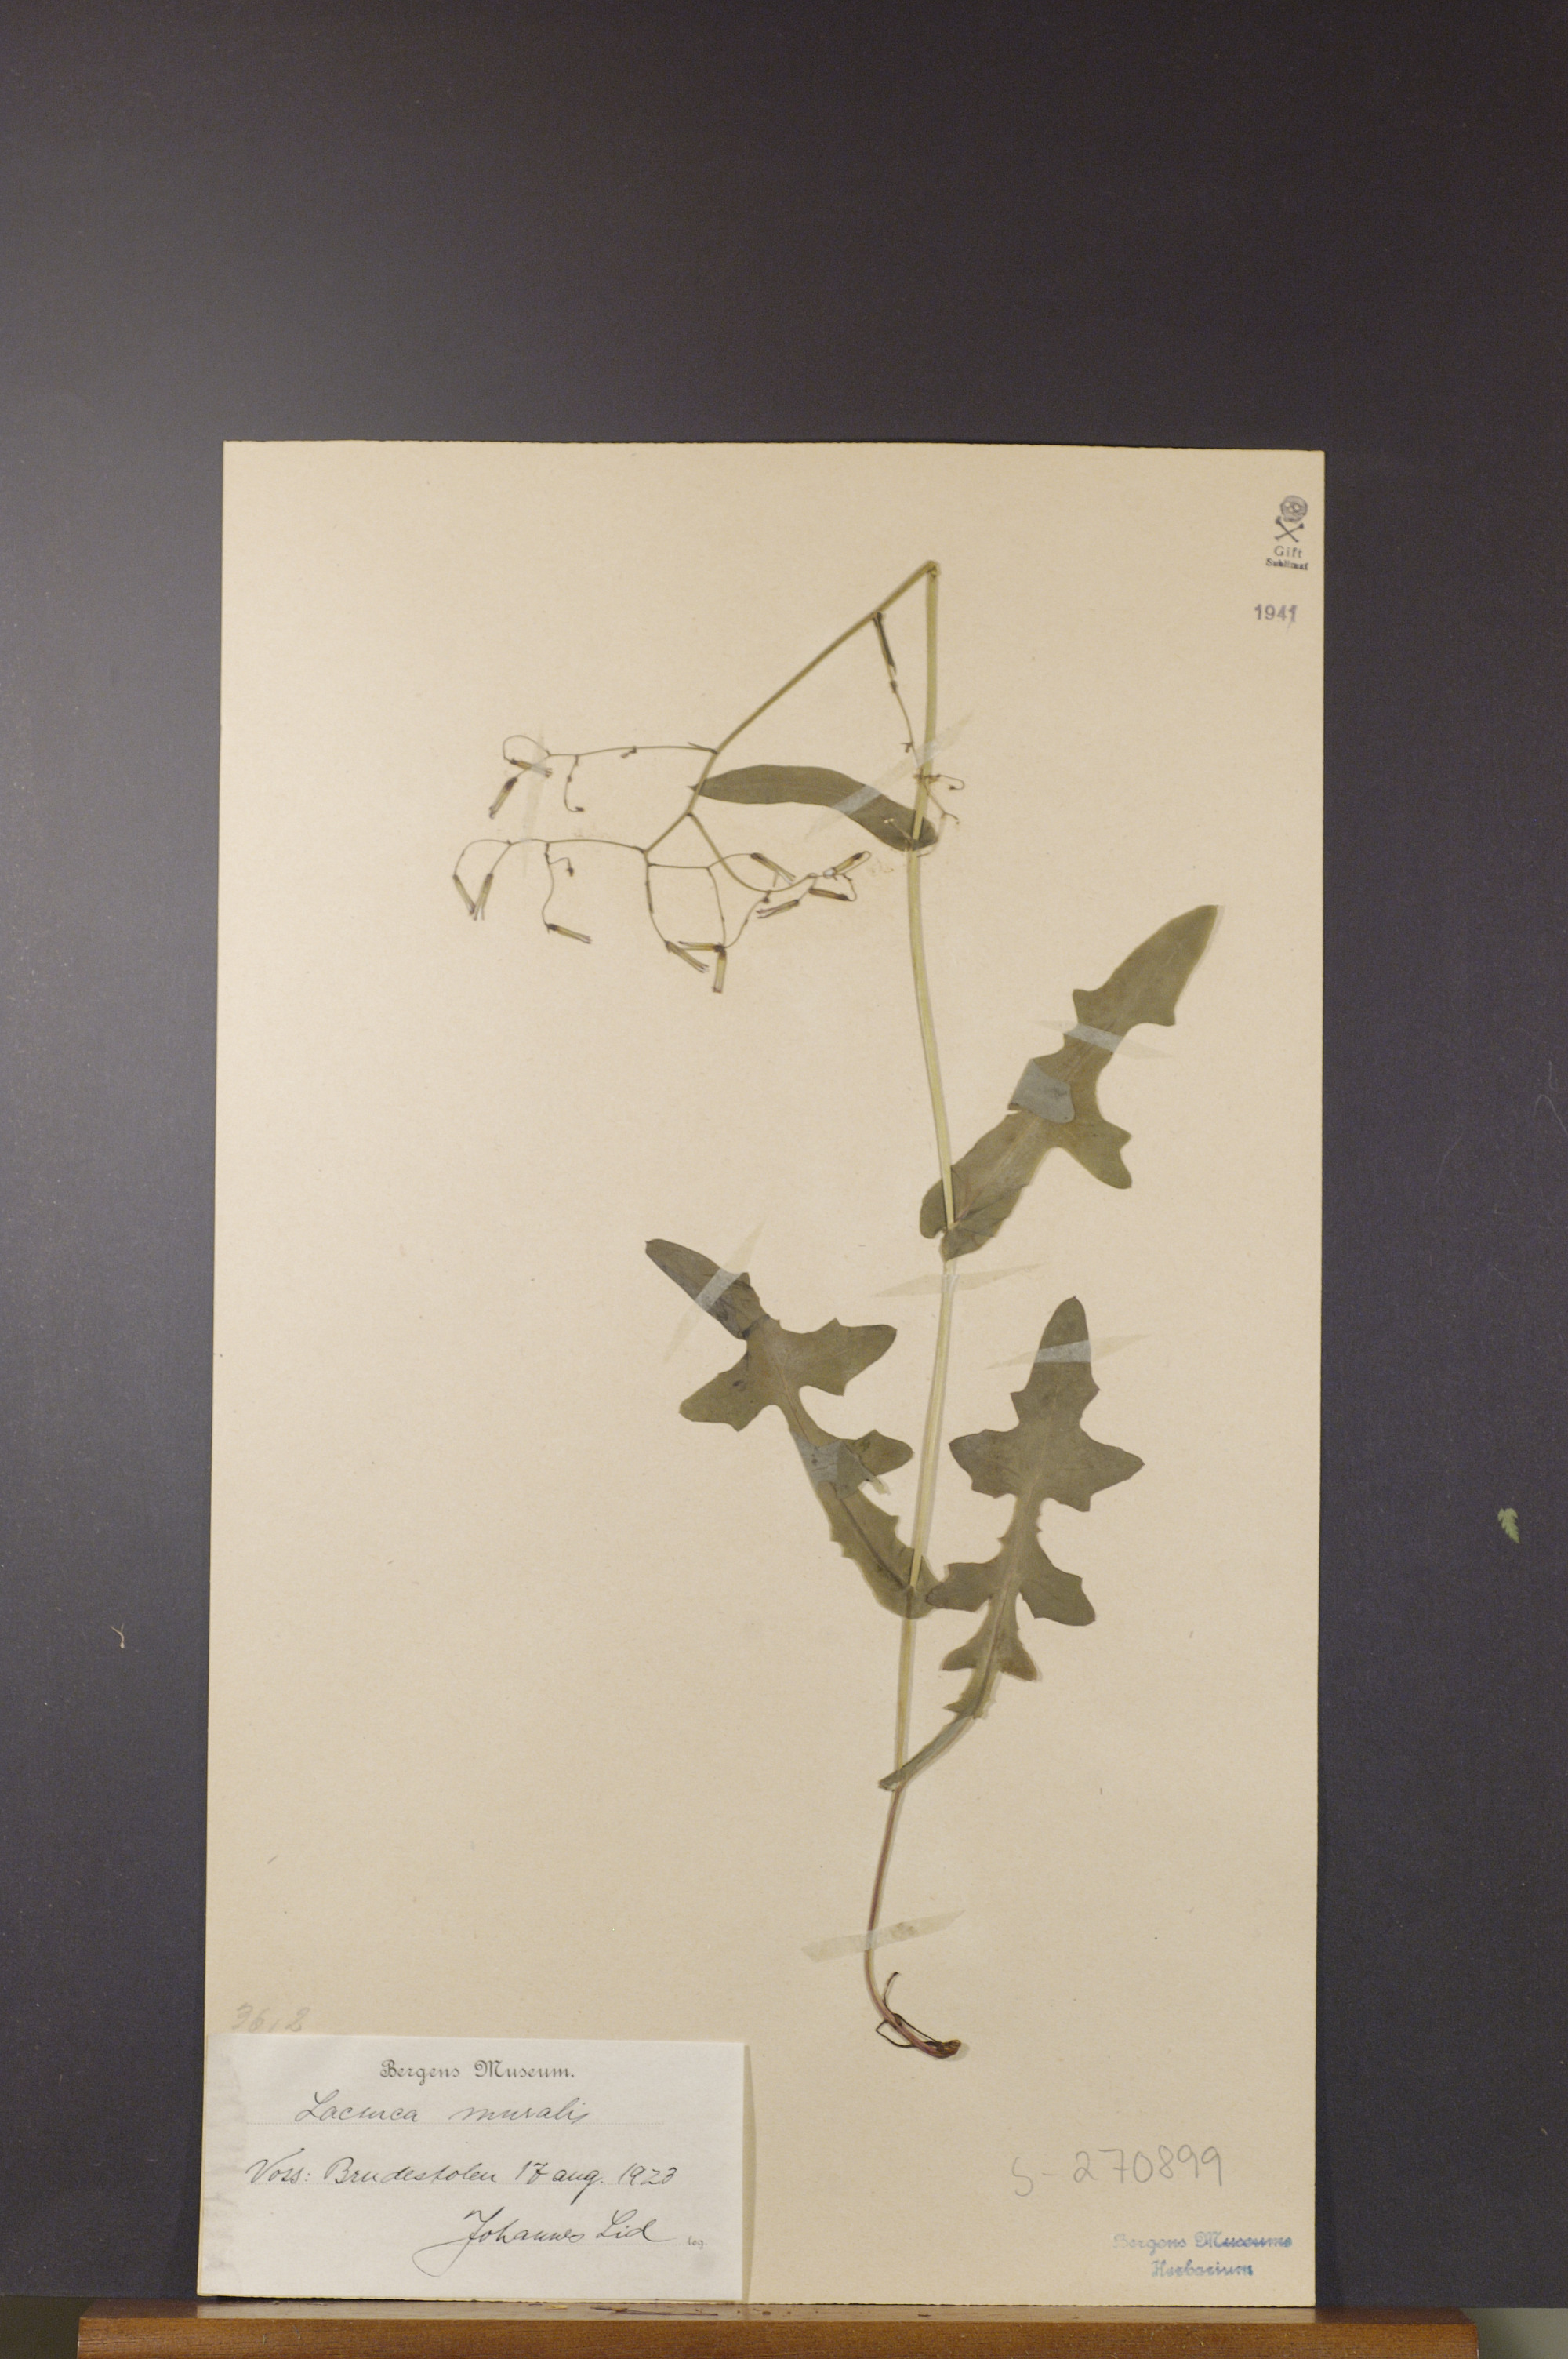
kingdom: Plantae
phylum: Tracheophyta
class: Magnoliopsida
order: Asterales
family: Asteraceae
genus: Mycelis
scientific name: Mycelis muralis
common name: Wall lettuce
